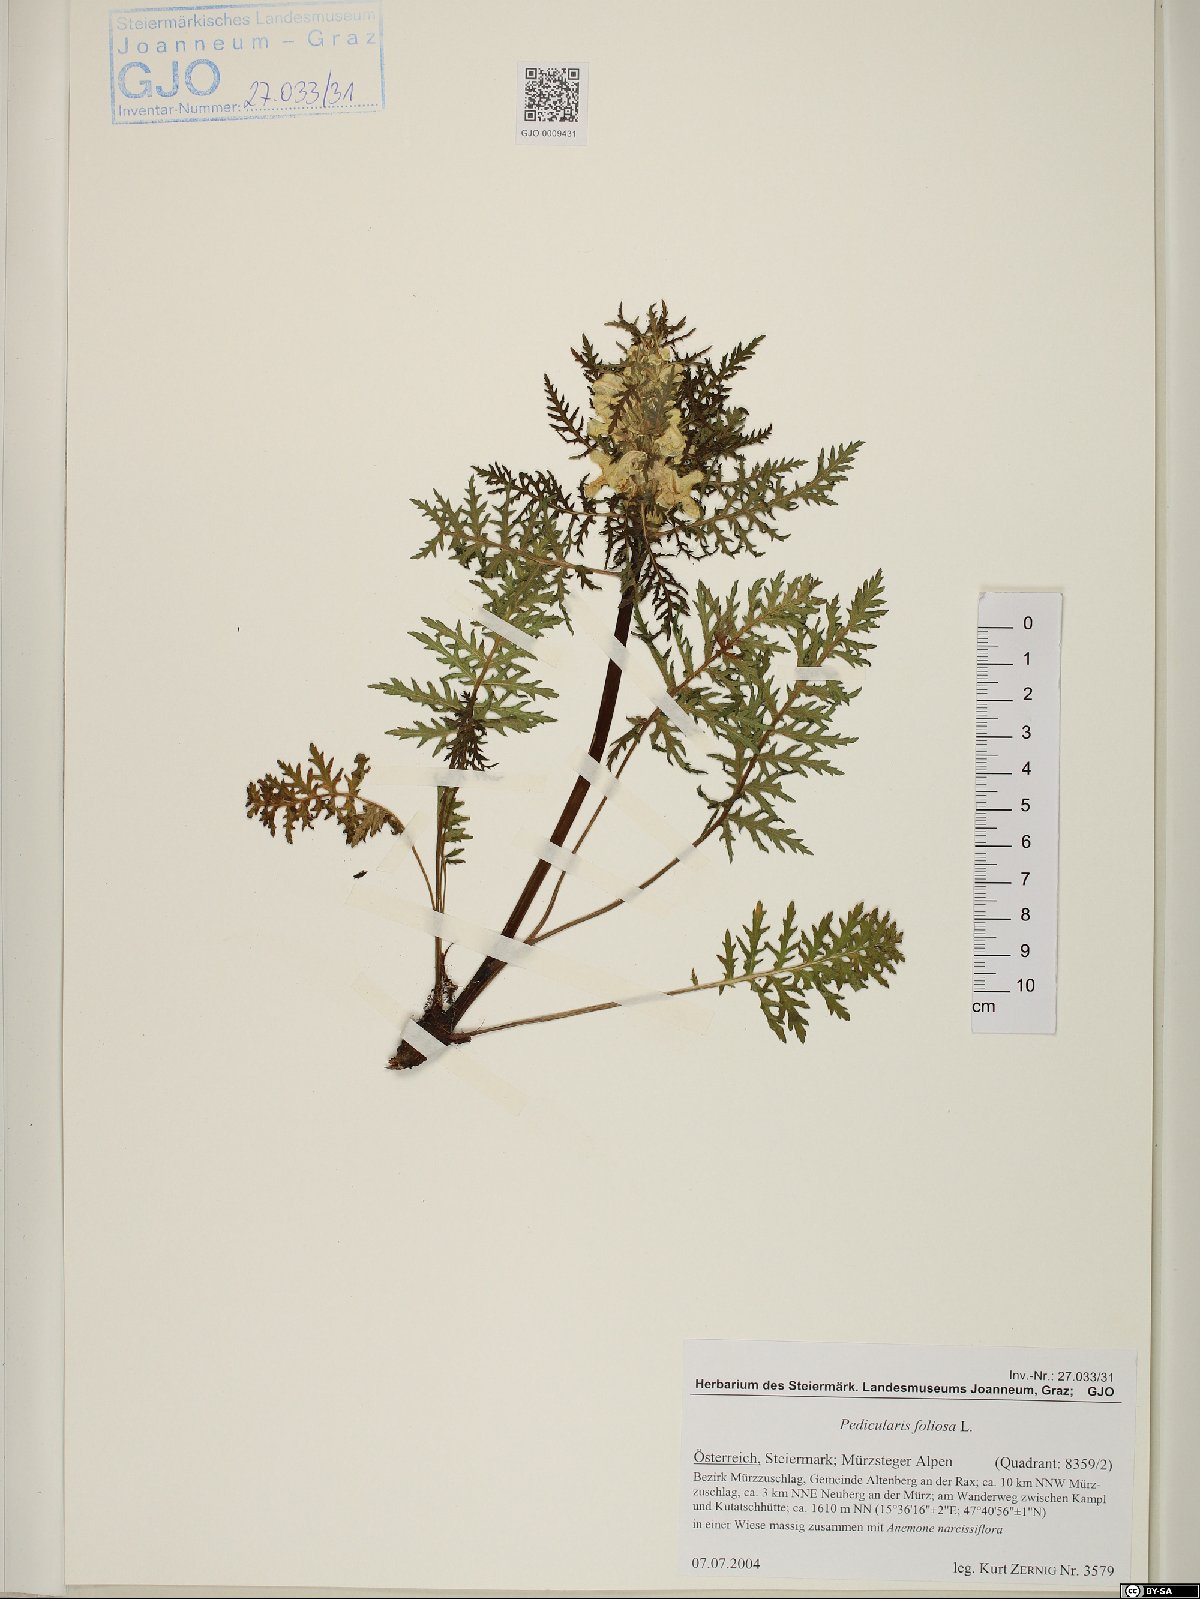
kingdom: Plantae
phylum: Tracheophyta
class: Magnoliopsida
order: Lamiales
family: Orobanchaceae
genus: Pedicularis
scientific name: Pedicularis foliosa
